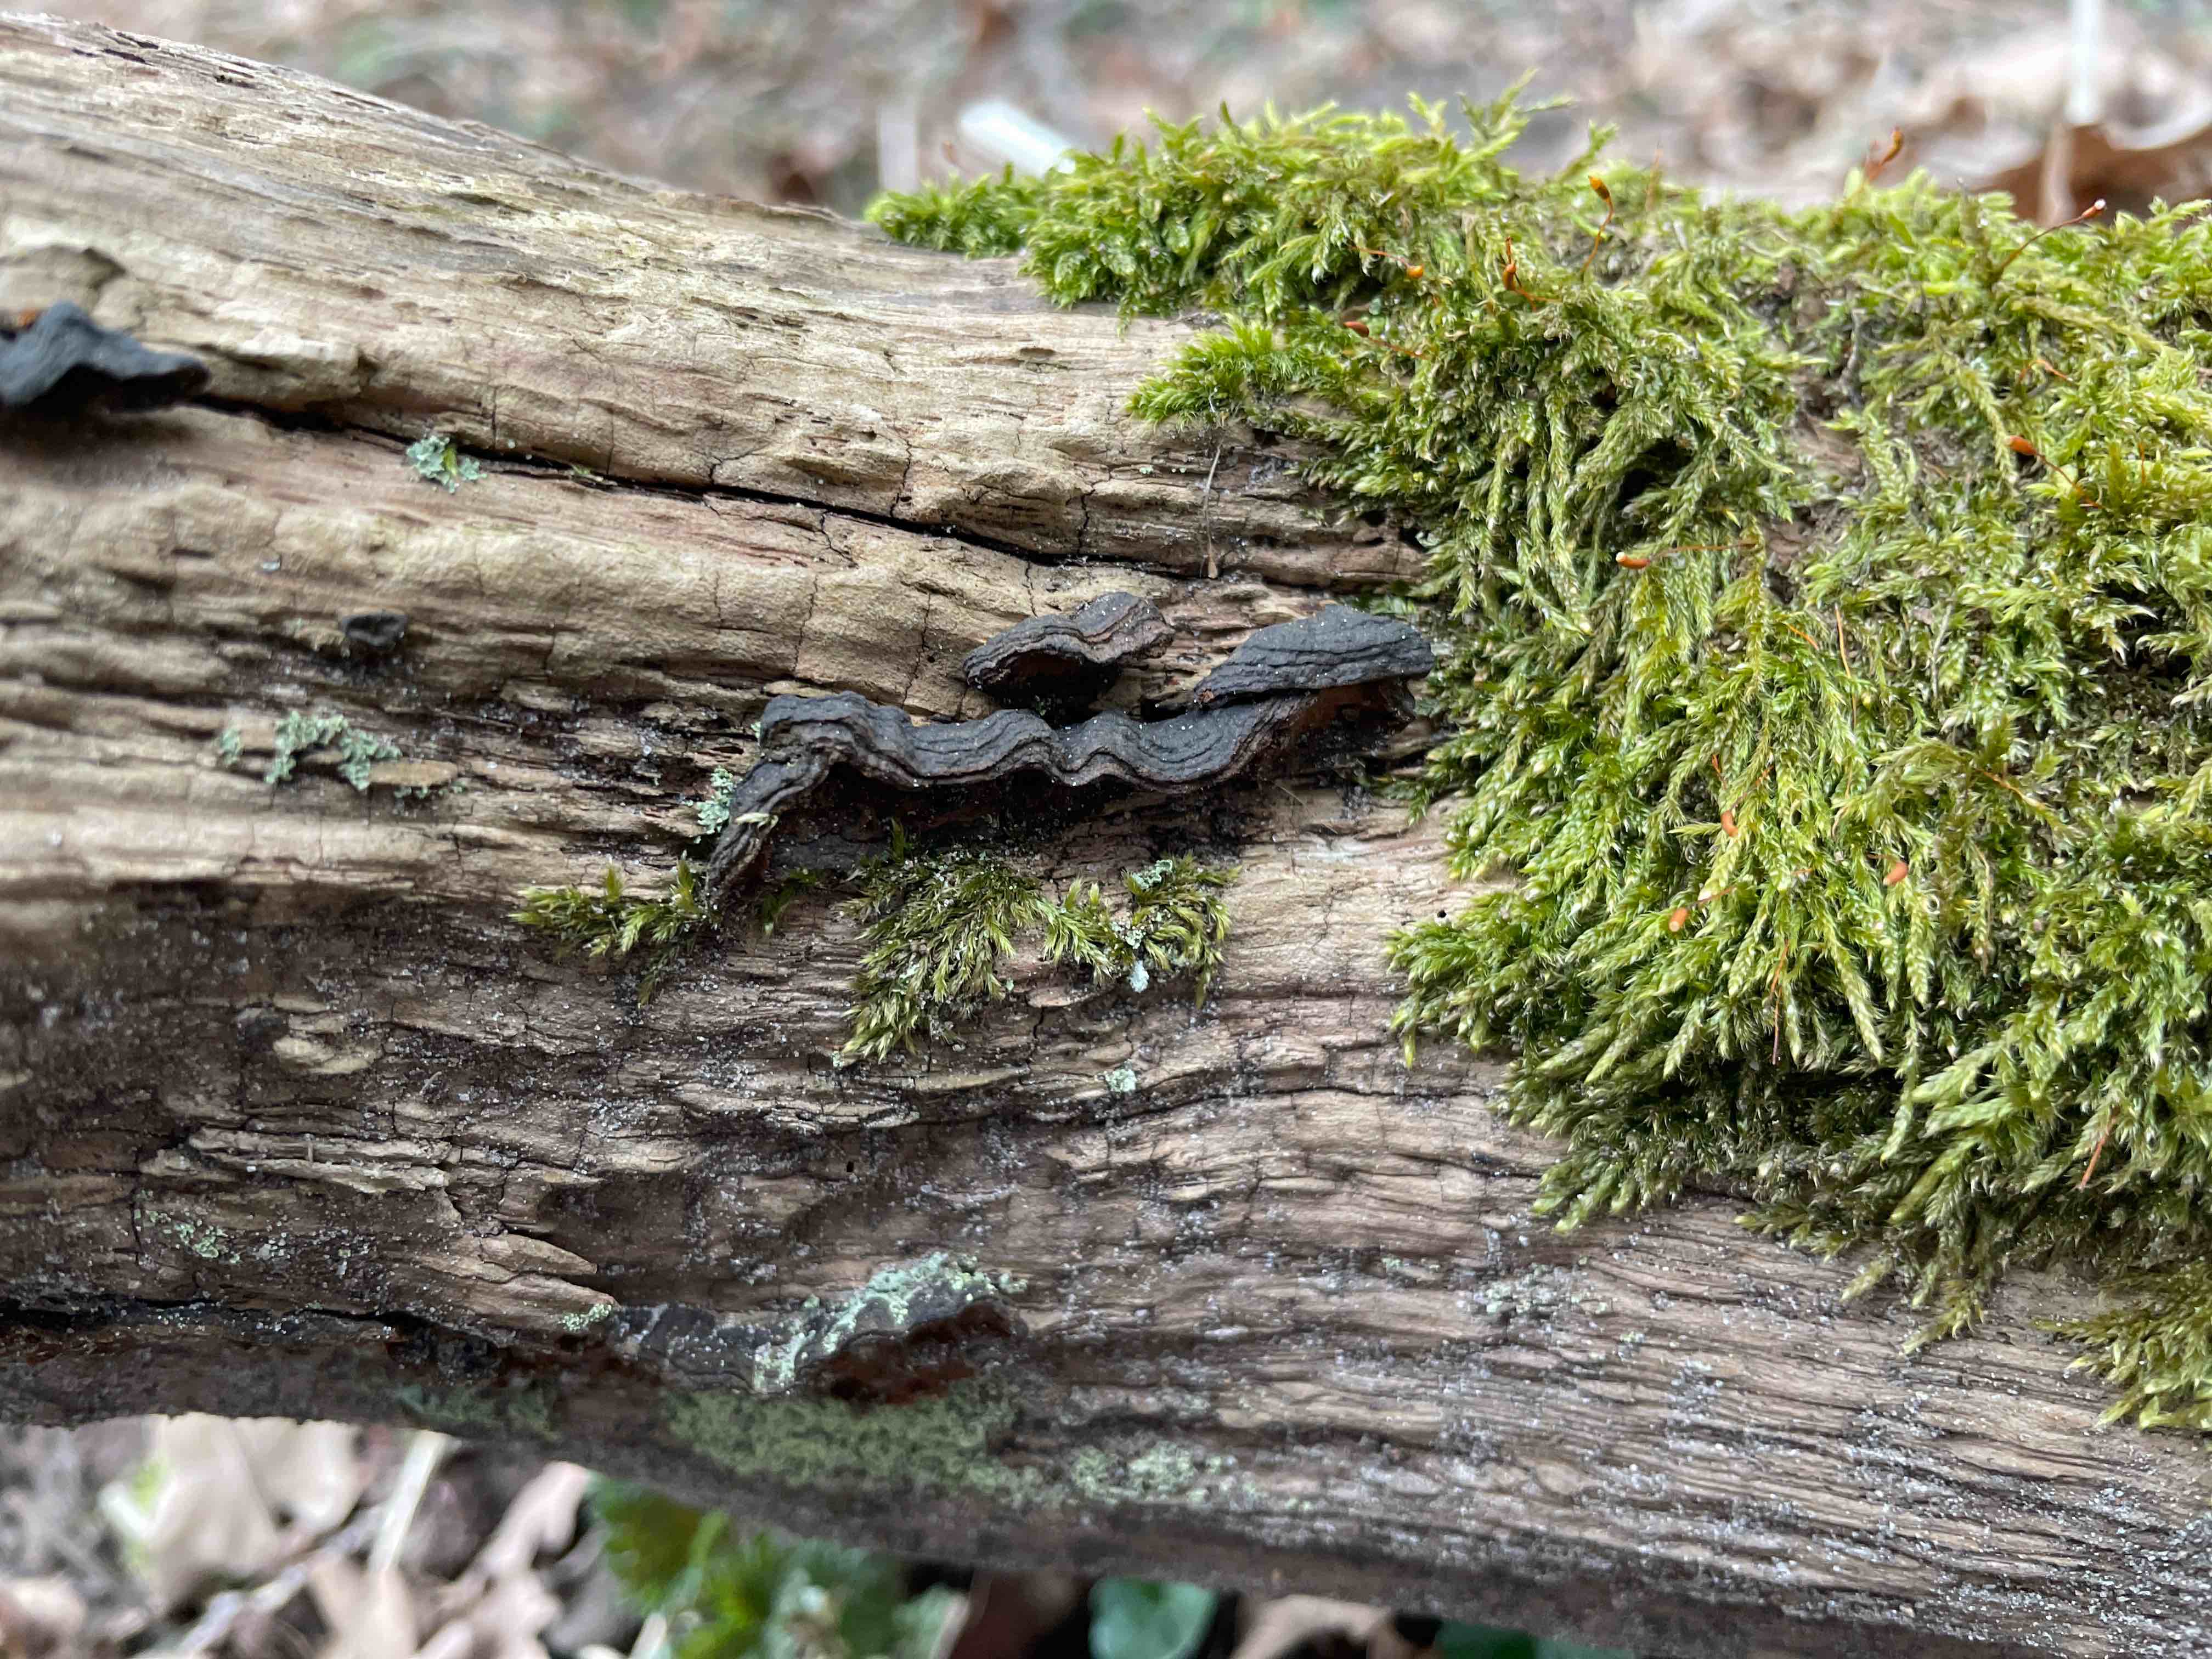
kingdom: Fungi
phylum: Basidiomycota
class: Agaricomycetes
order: Hymenochaetales
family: Hymenochaetaceae
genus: Hymenochaete
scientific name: Hymenochaete rubiginosa
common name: stiv ruslædersvamp
